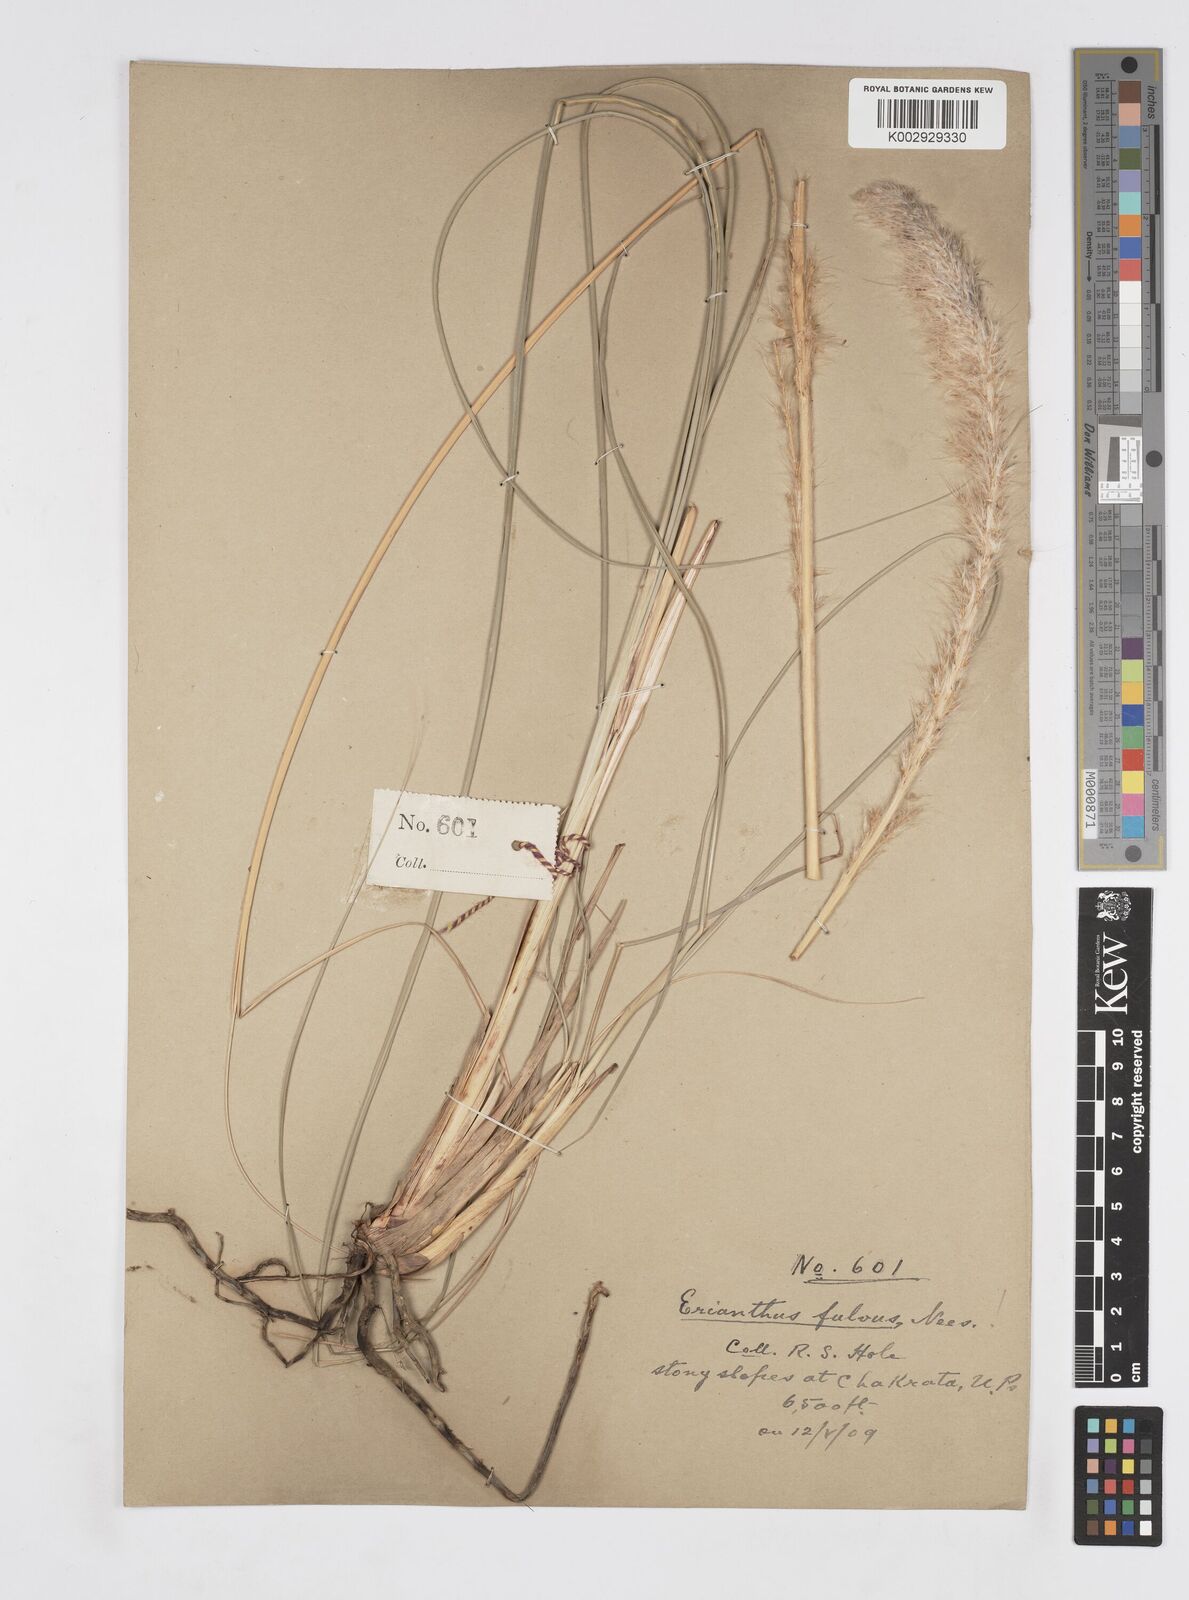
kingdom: Plantae
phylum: Tracheophyta
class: Liliopsida
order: Poales
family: Poaceae
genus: Tripidium
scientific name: Tripidium rufipilum
